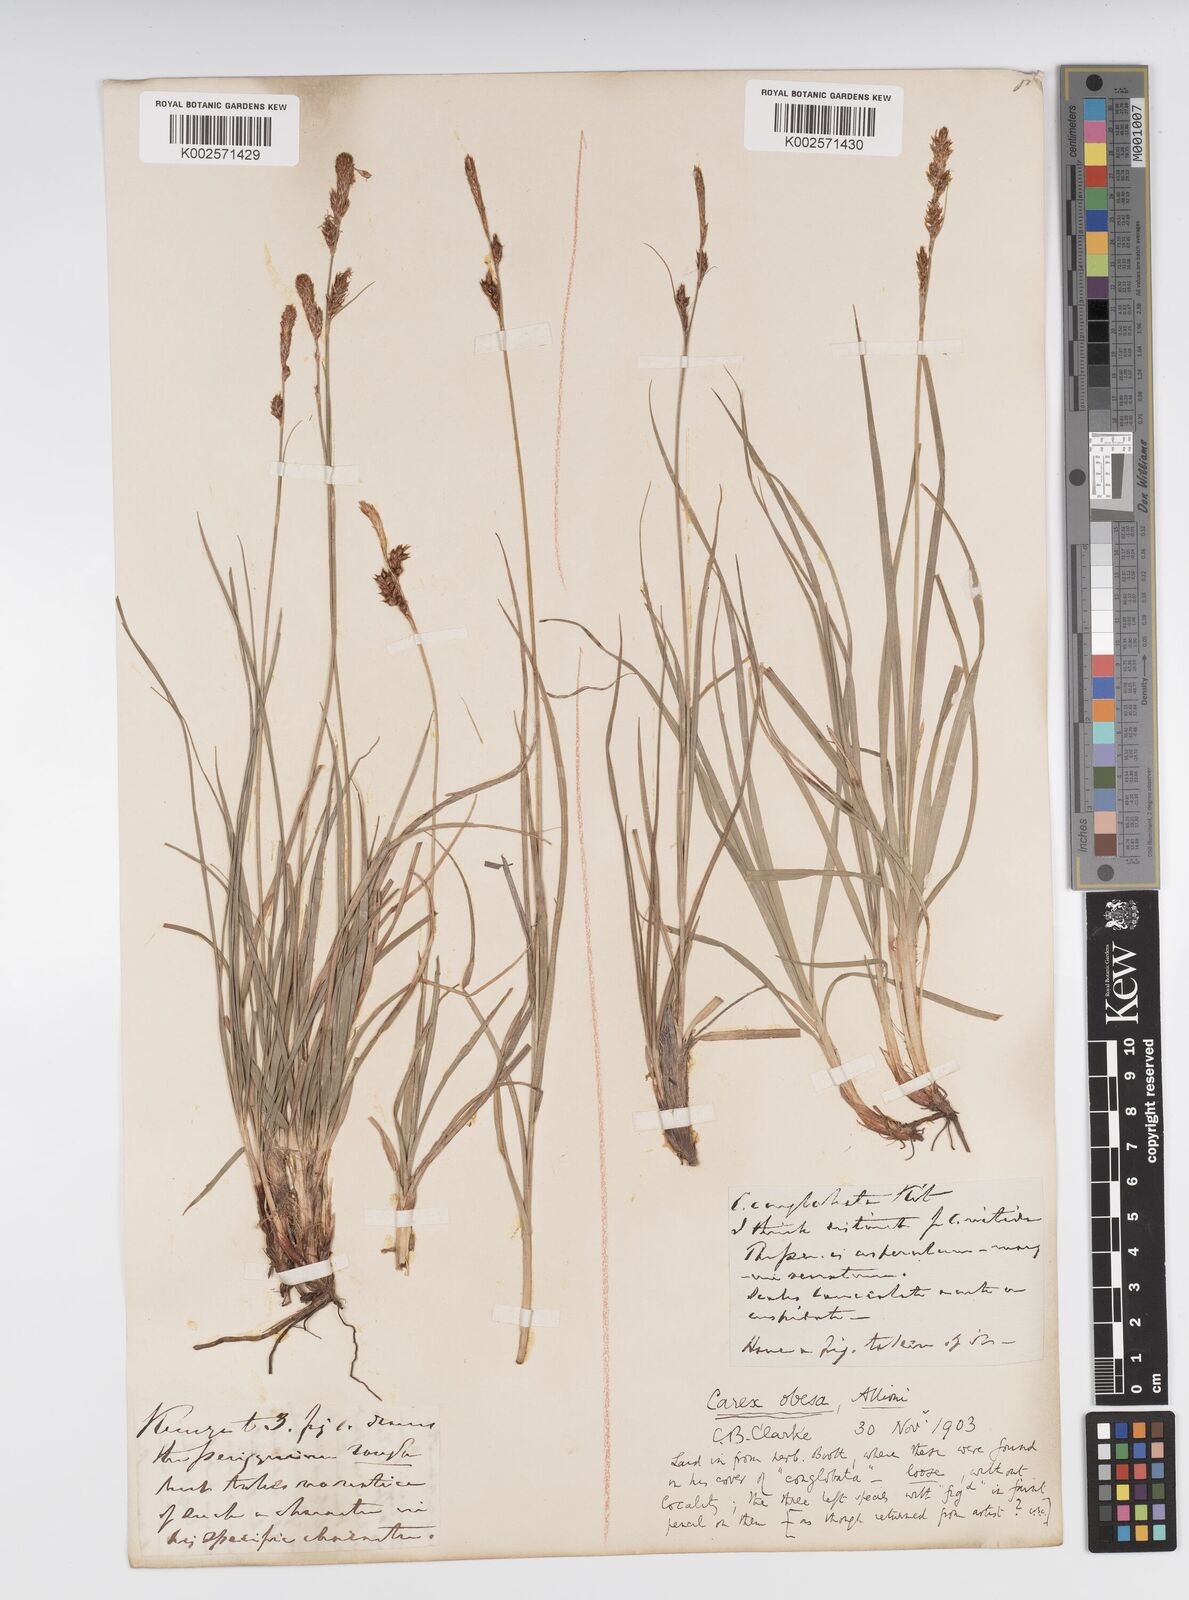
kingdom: Plantae
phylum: Tracheophyta
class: Liliopsida
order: Poales
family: Cyperaceae
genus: Carex
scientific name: Carex liparocarpos
